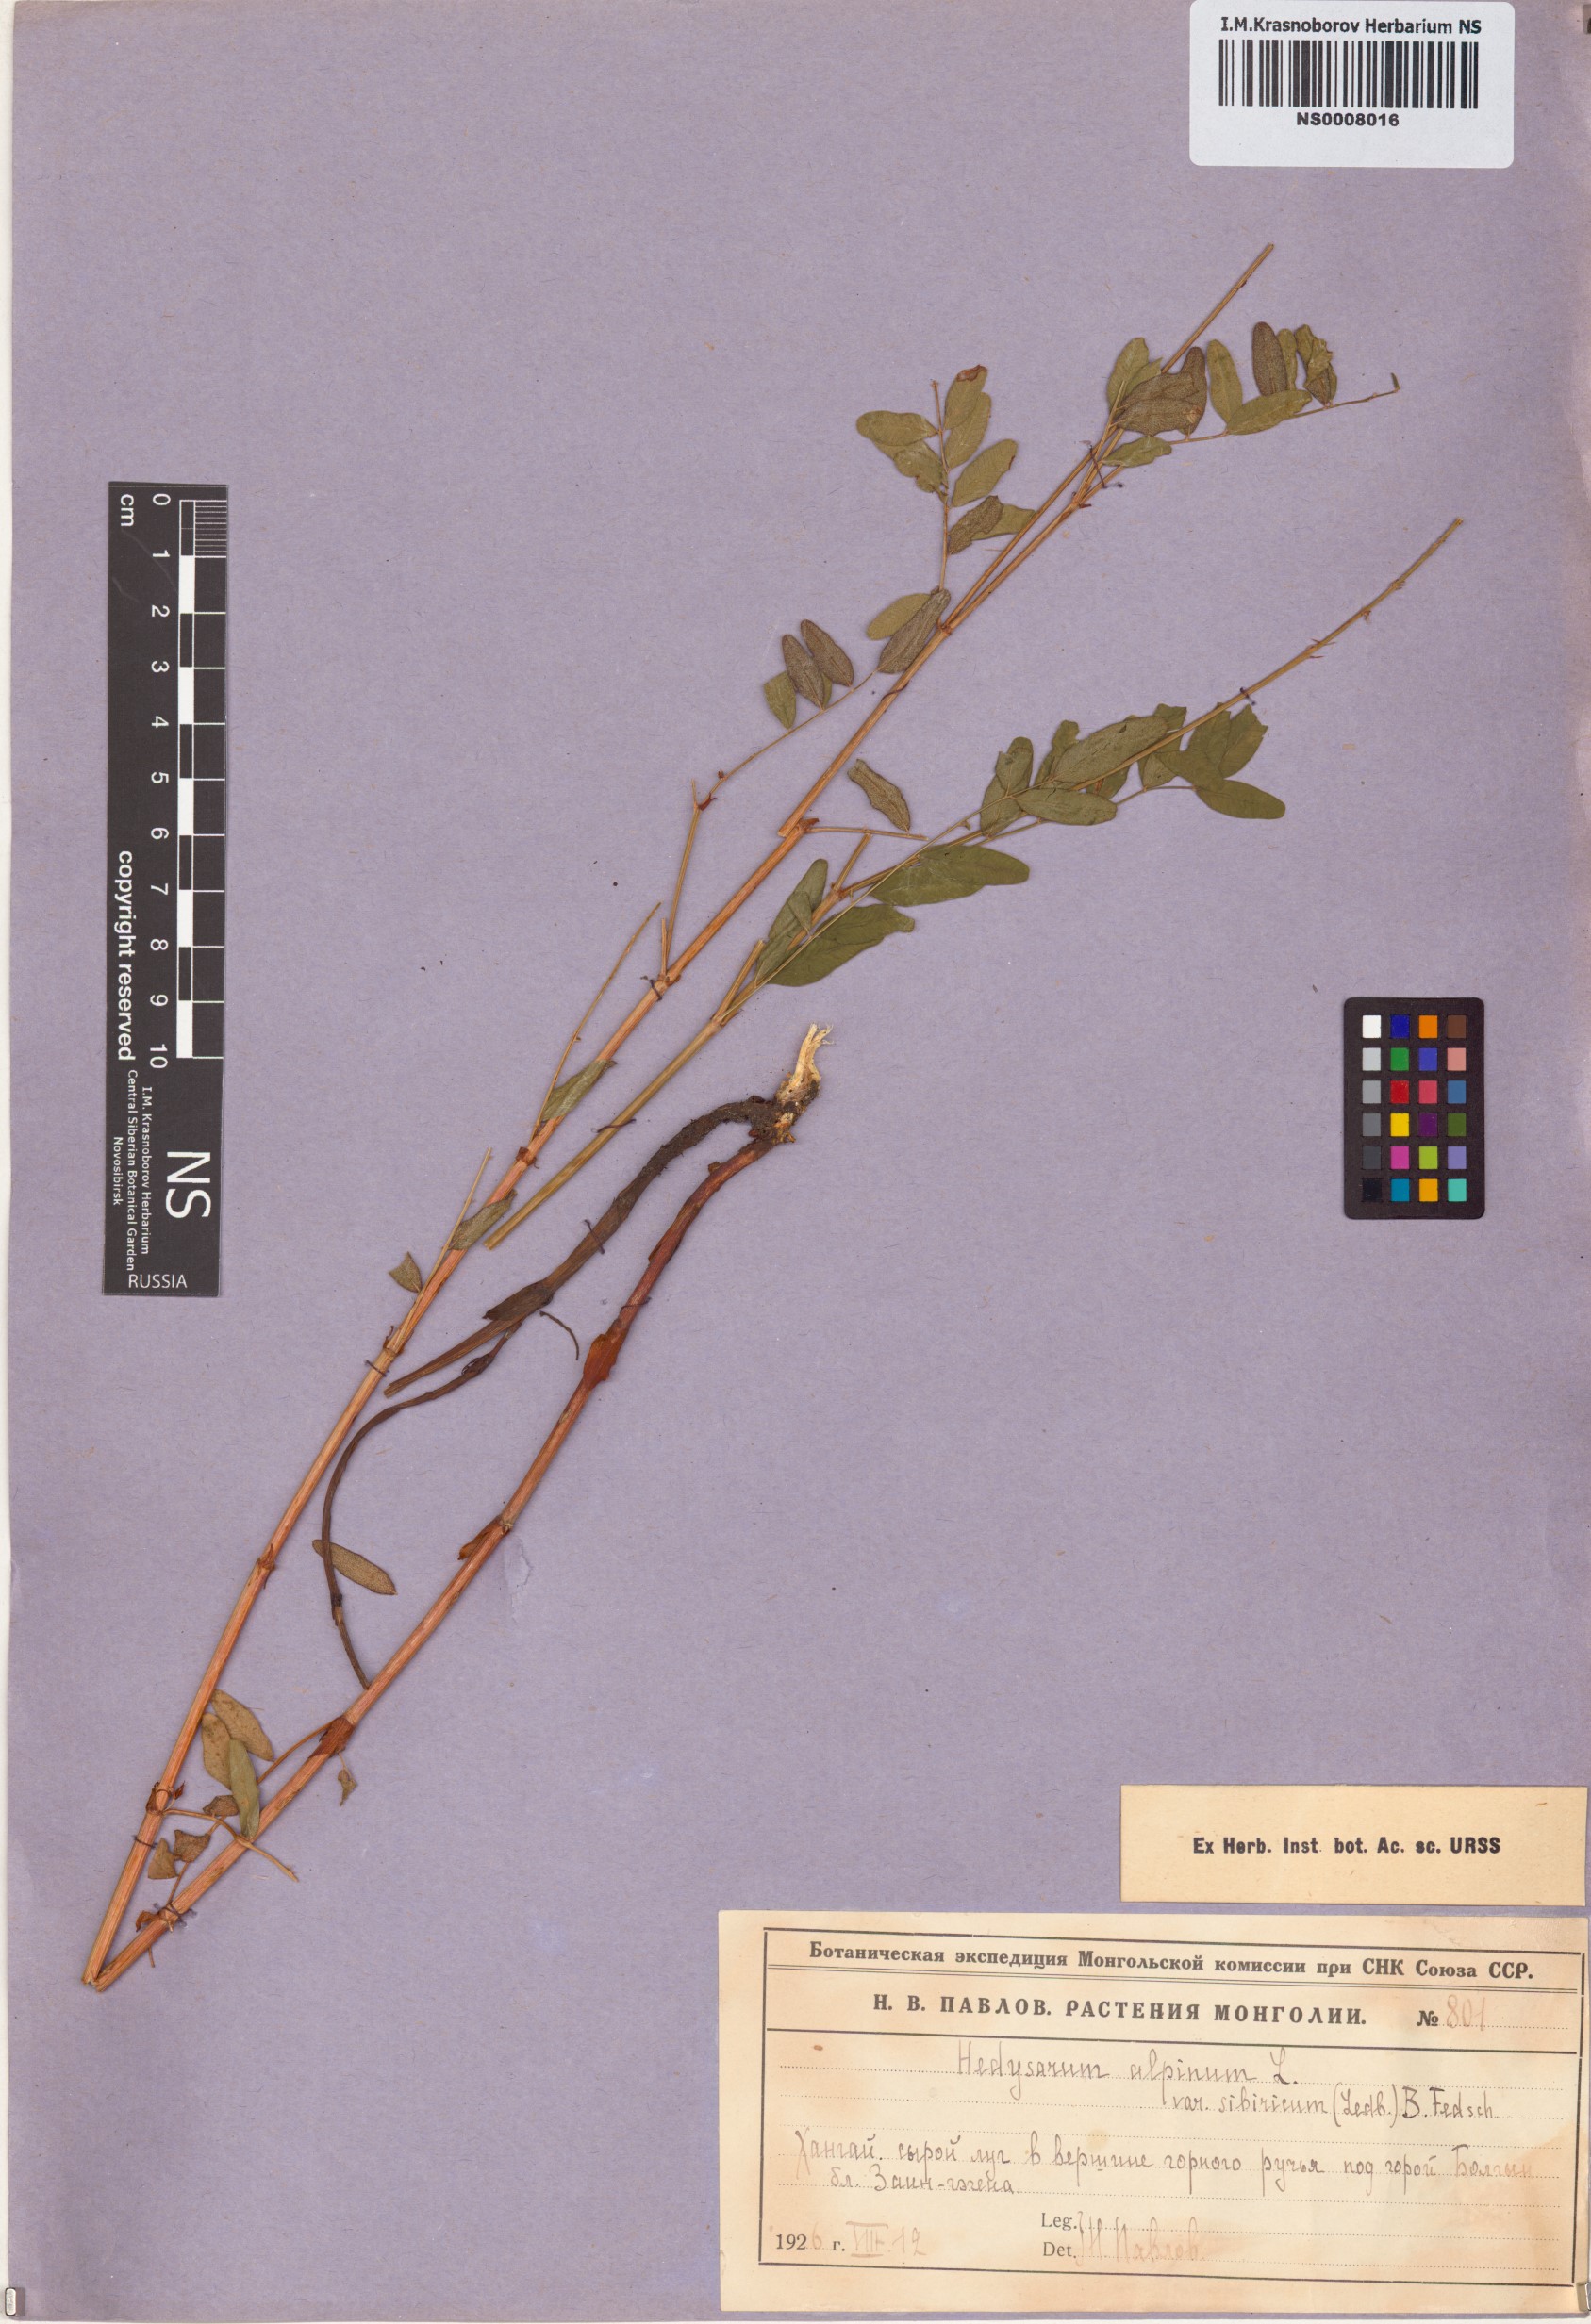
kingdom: Plantae
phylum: Tracheophyta
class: Magnoliopsida
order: Fabales
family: Fabaceae
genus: Hedysarum
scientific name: Hedysarum alpinum
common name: Alpine sweet-vetch
